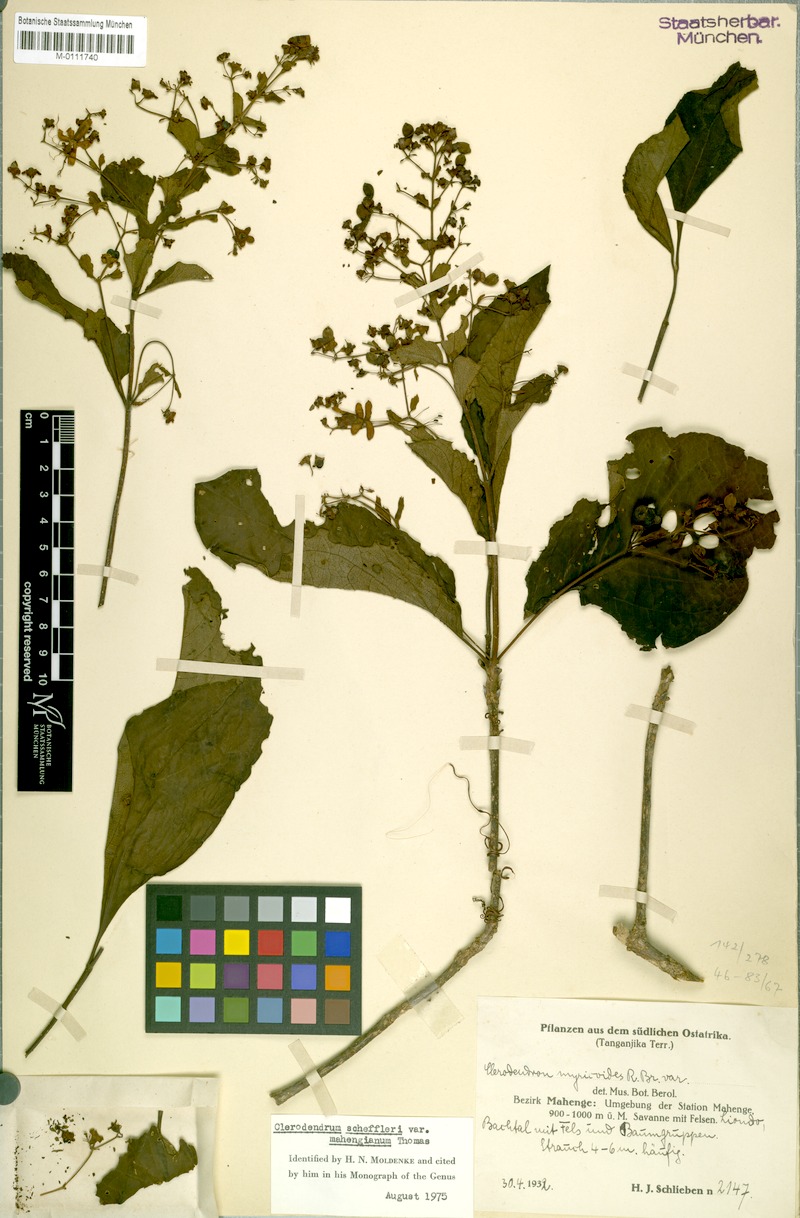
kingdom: Plantae
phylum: Tracheophyta
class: Magnoliopsida
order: Lamiales
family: Lamiaceae
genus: Rotheca
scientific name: Rotheca sansibarensis
